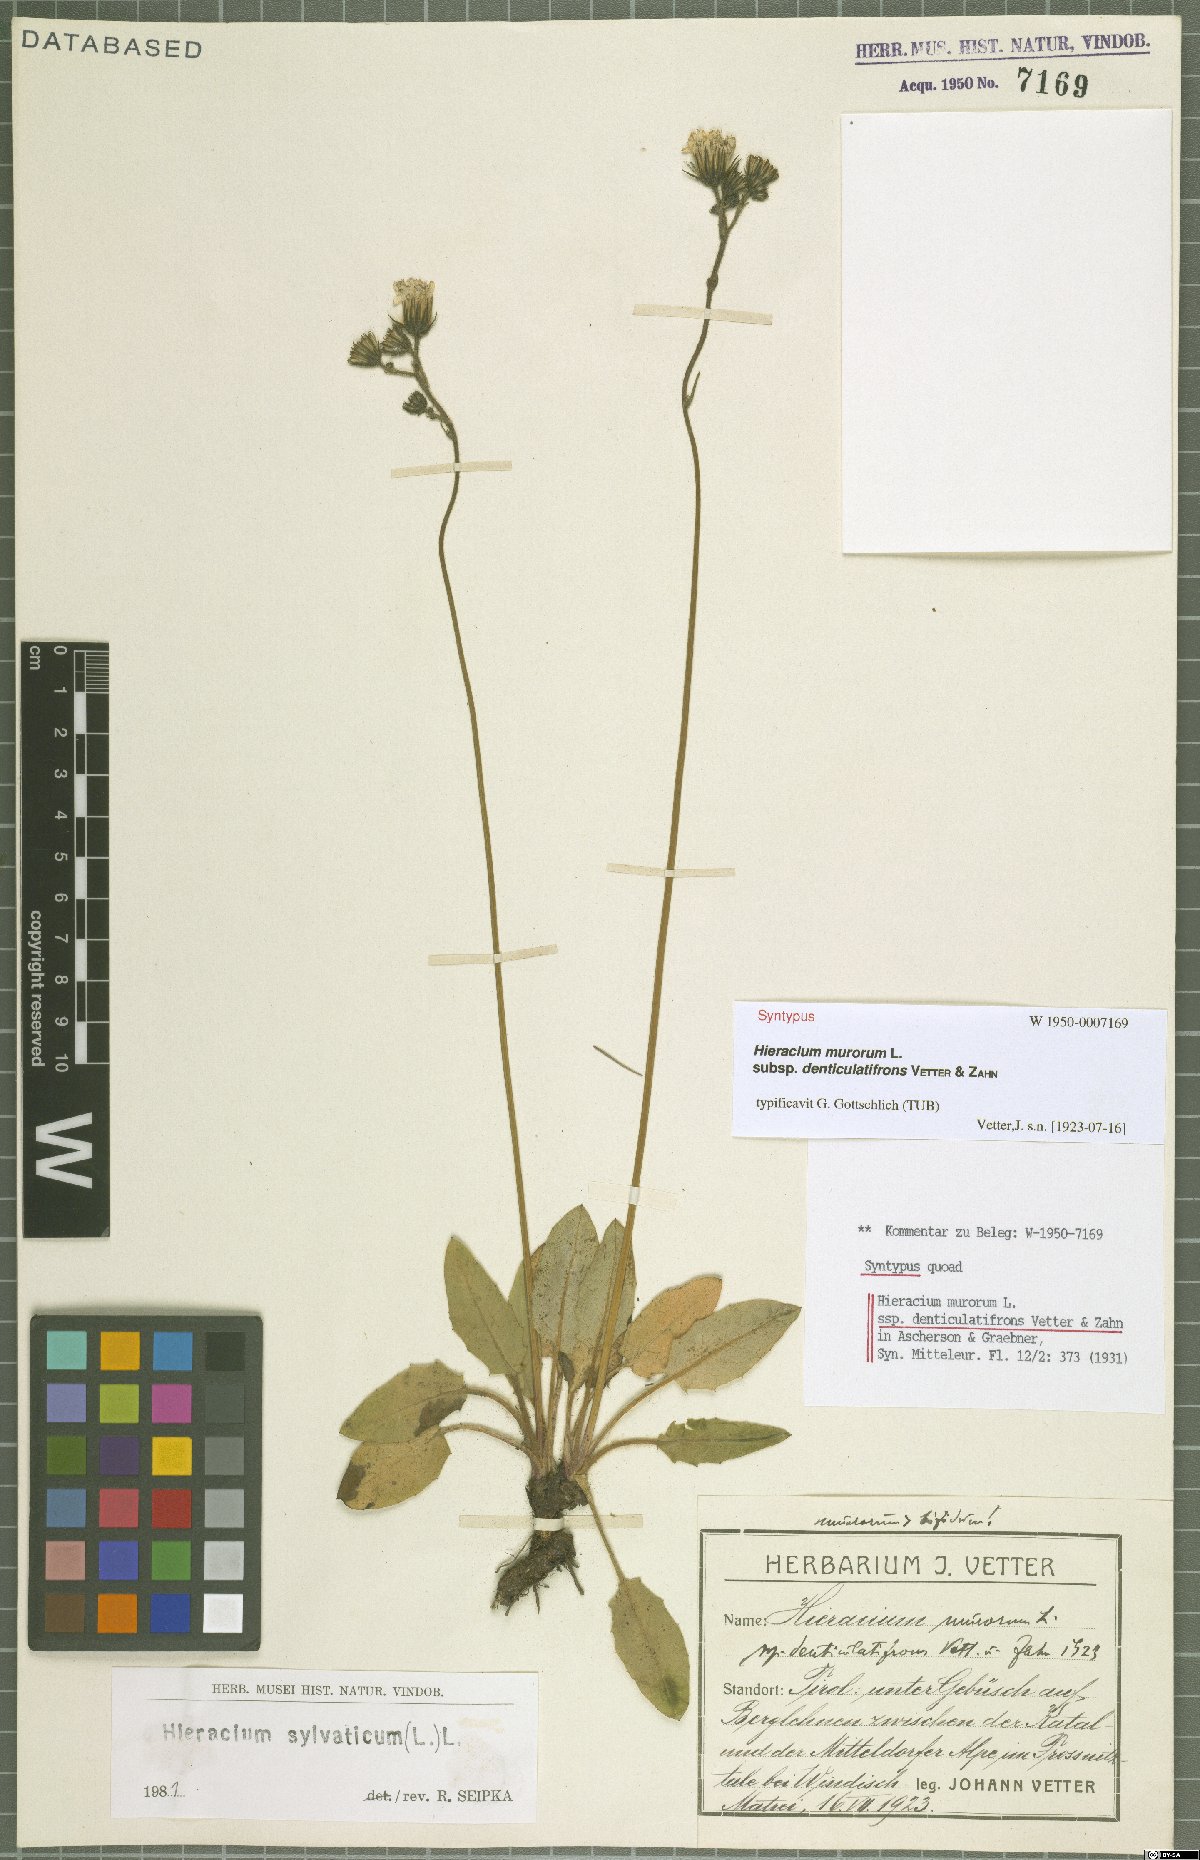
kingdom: Plantae
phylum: Tracheophyta
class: Magnoliopsida
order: Asterales
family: Asteraceae
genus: Hieracium
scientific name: Hieracium murorum
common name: Wall hawkweed
